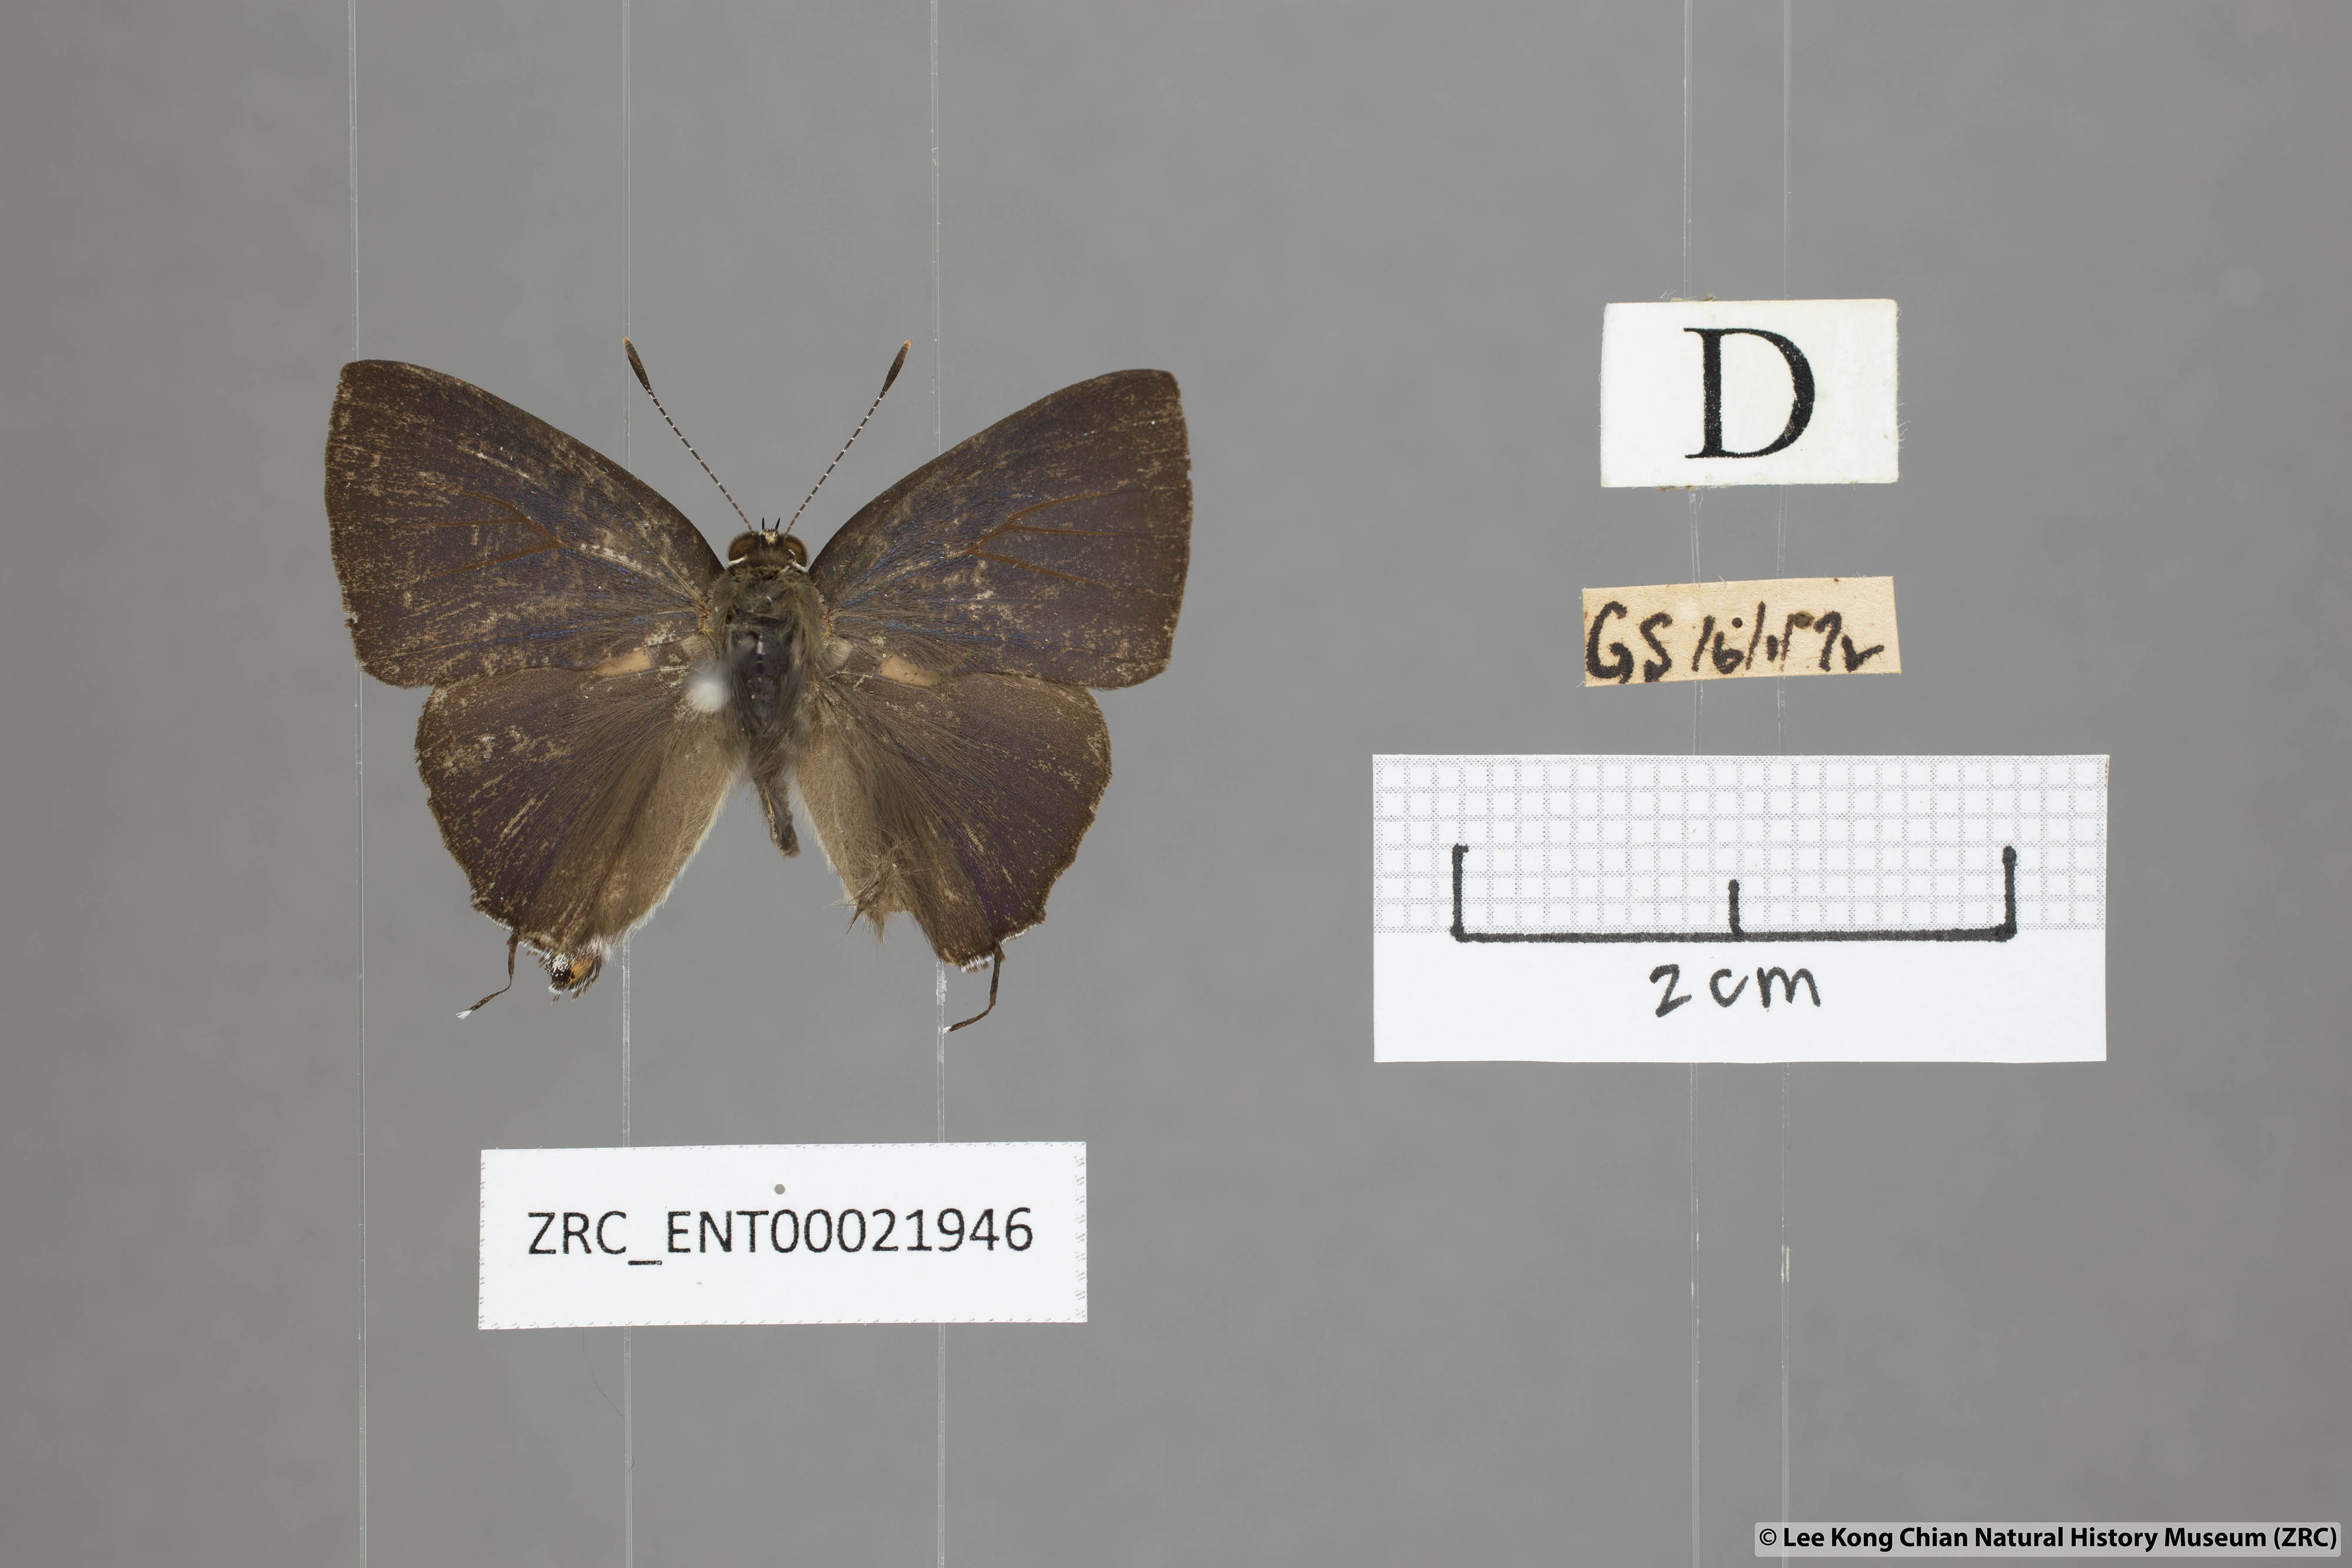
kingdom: Animalia
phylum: Arthropoda
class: Insecta
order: Lepidoptera
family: Lycaenidae
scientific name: Lycaenidae
